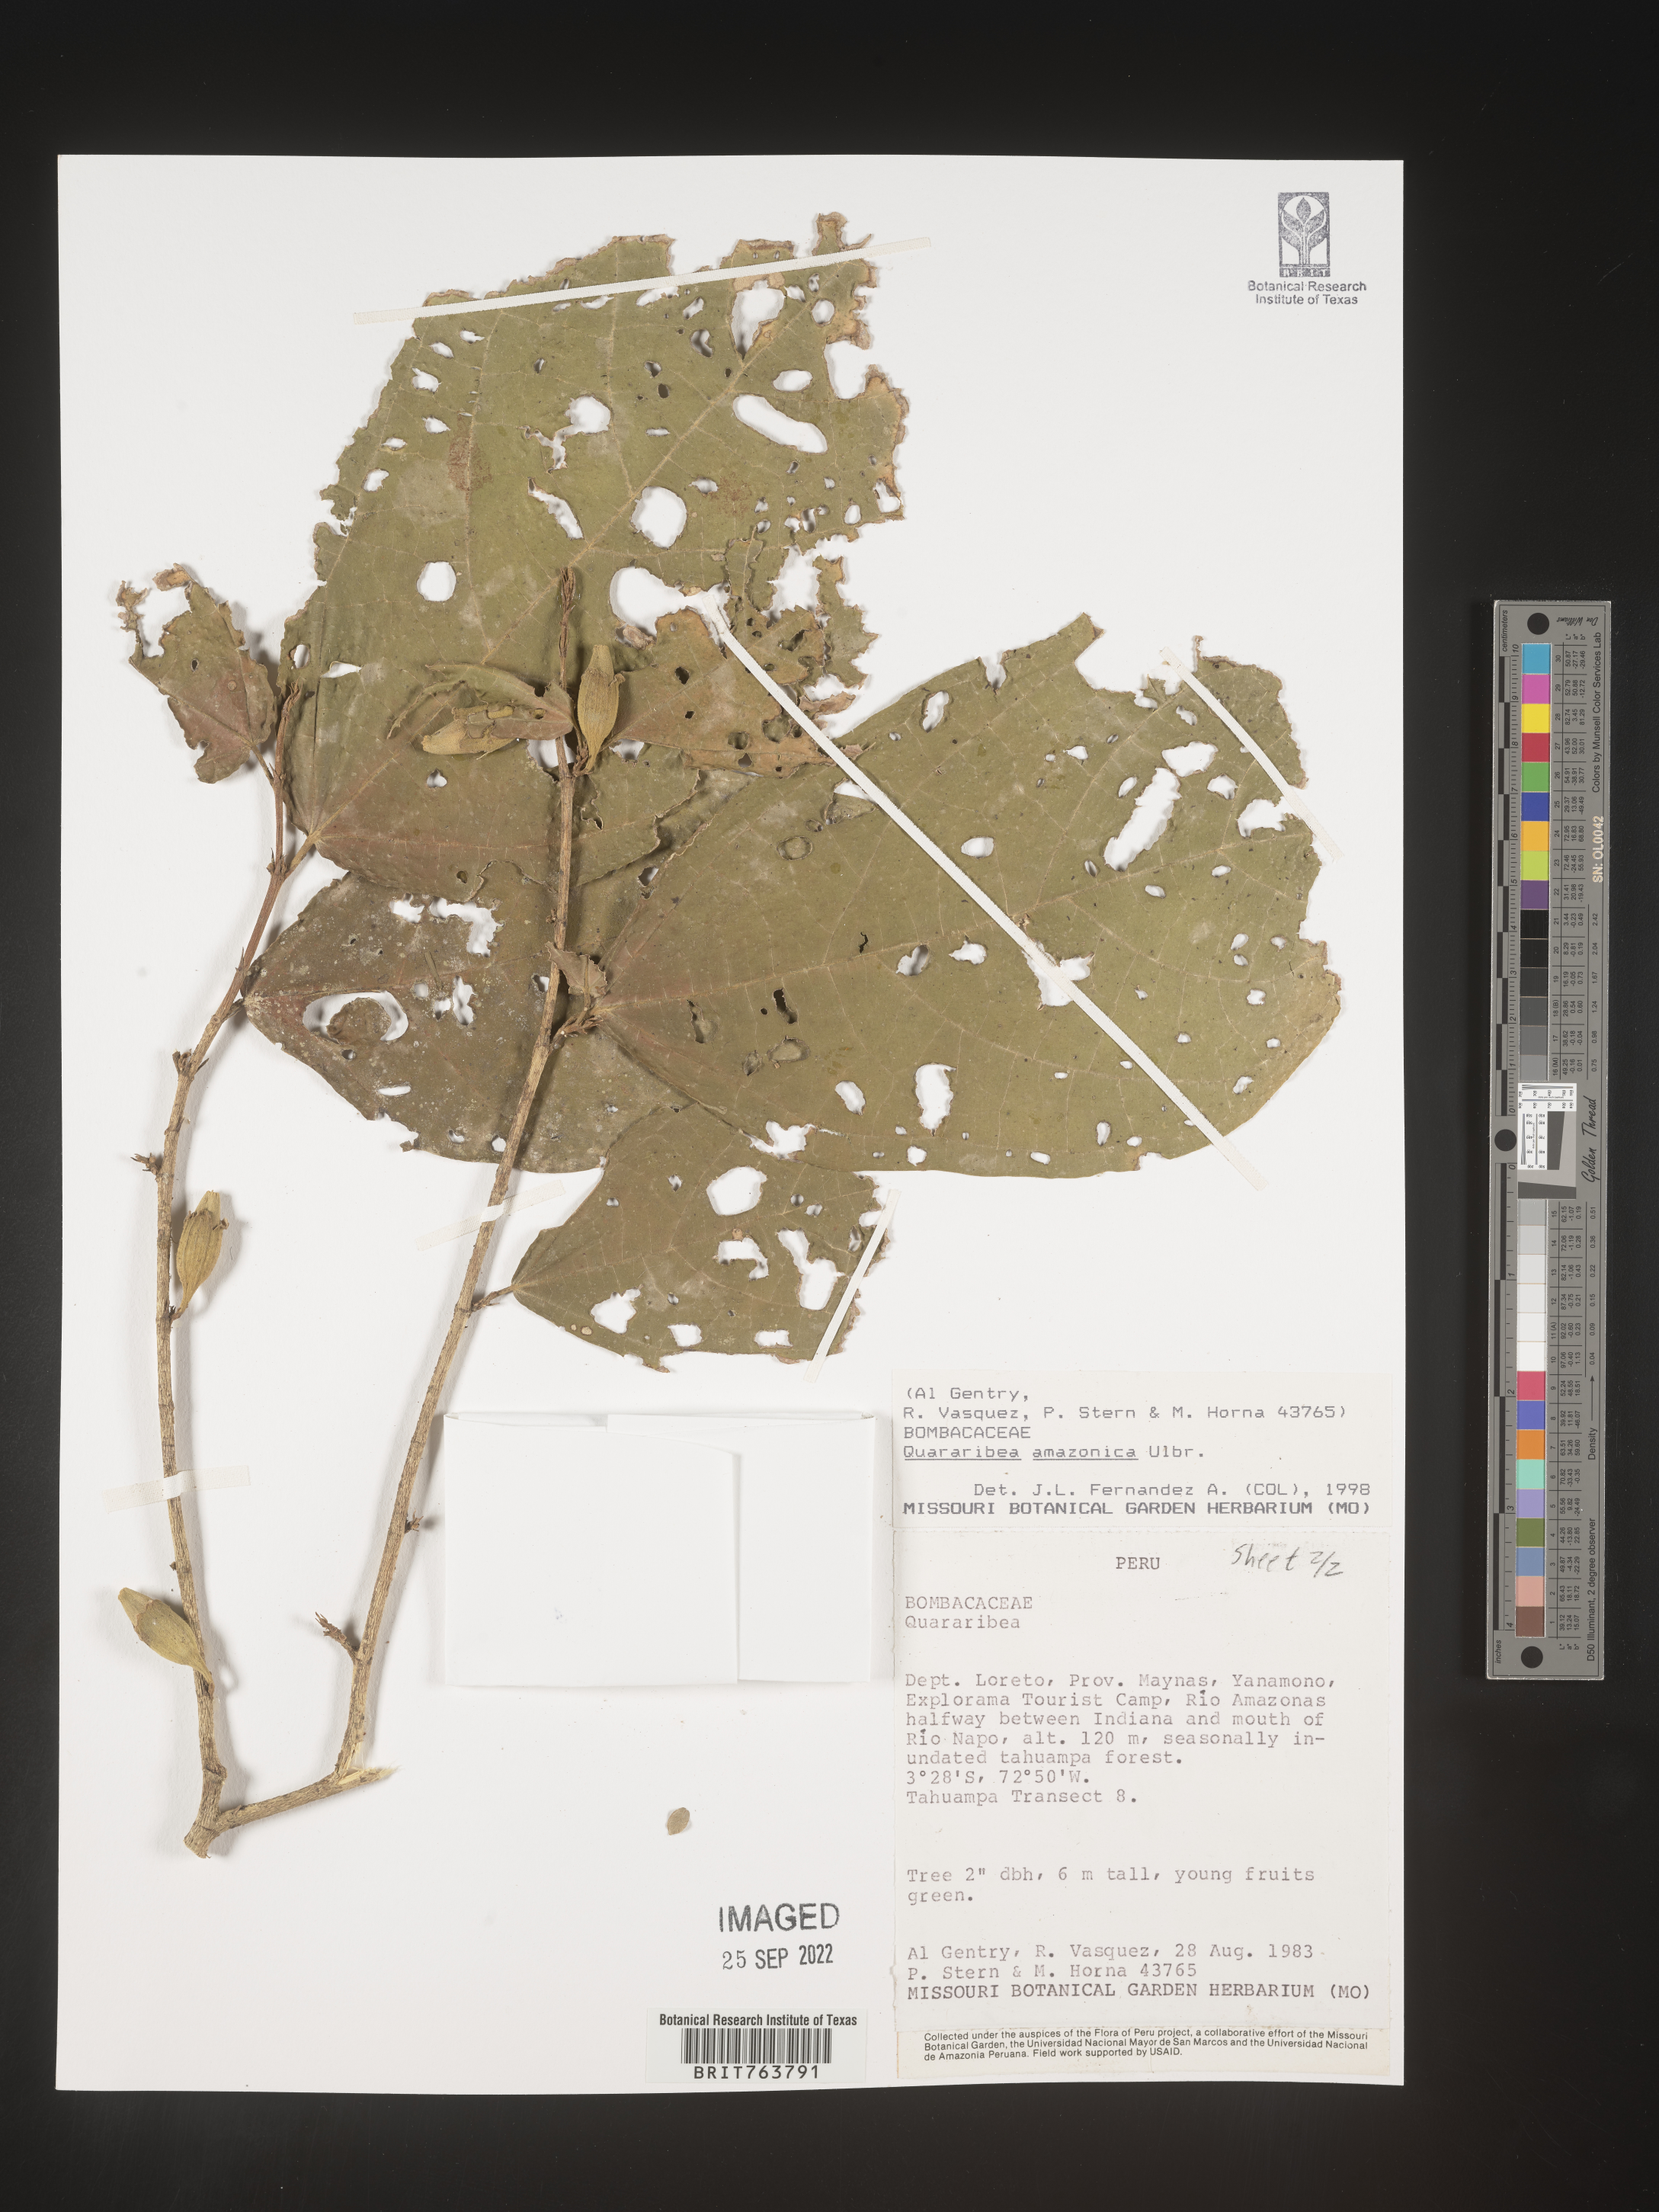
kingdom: Plantae
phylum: Tracheophyta
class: Magnoliopsida
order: Malvales
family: Malvaceae
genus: Quararibea
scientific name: Quararibea
